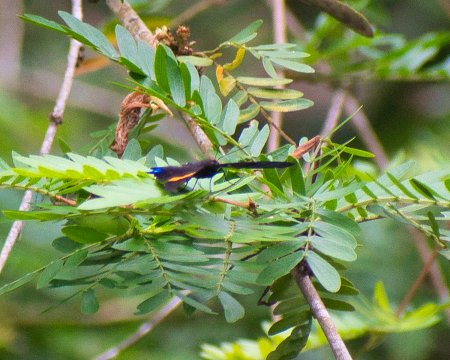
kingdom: Animalia
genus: Ancyluris
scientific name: Ancyluris inca
